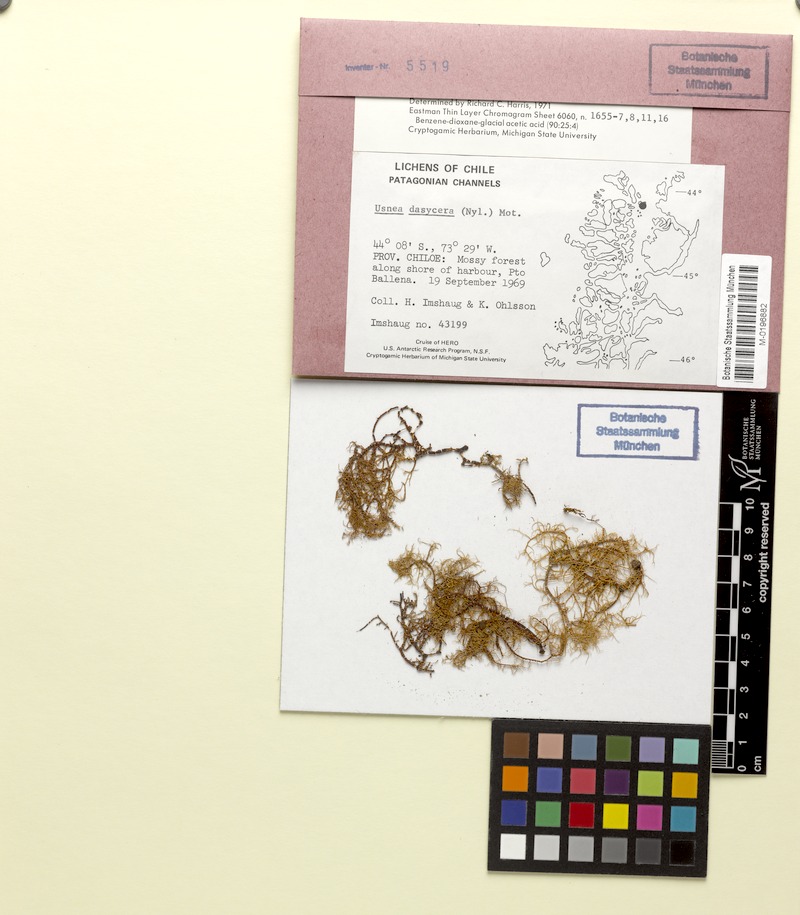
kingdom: Fungi
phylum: Ascomycota
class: Lecanoromycetes
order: Lecanorales
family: Parmeliaceae
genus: Usnea
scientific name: Usnea dasycera
